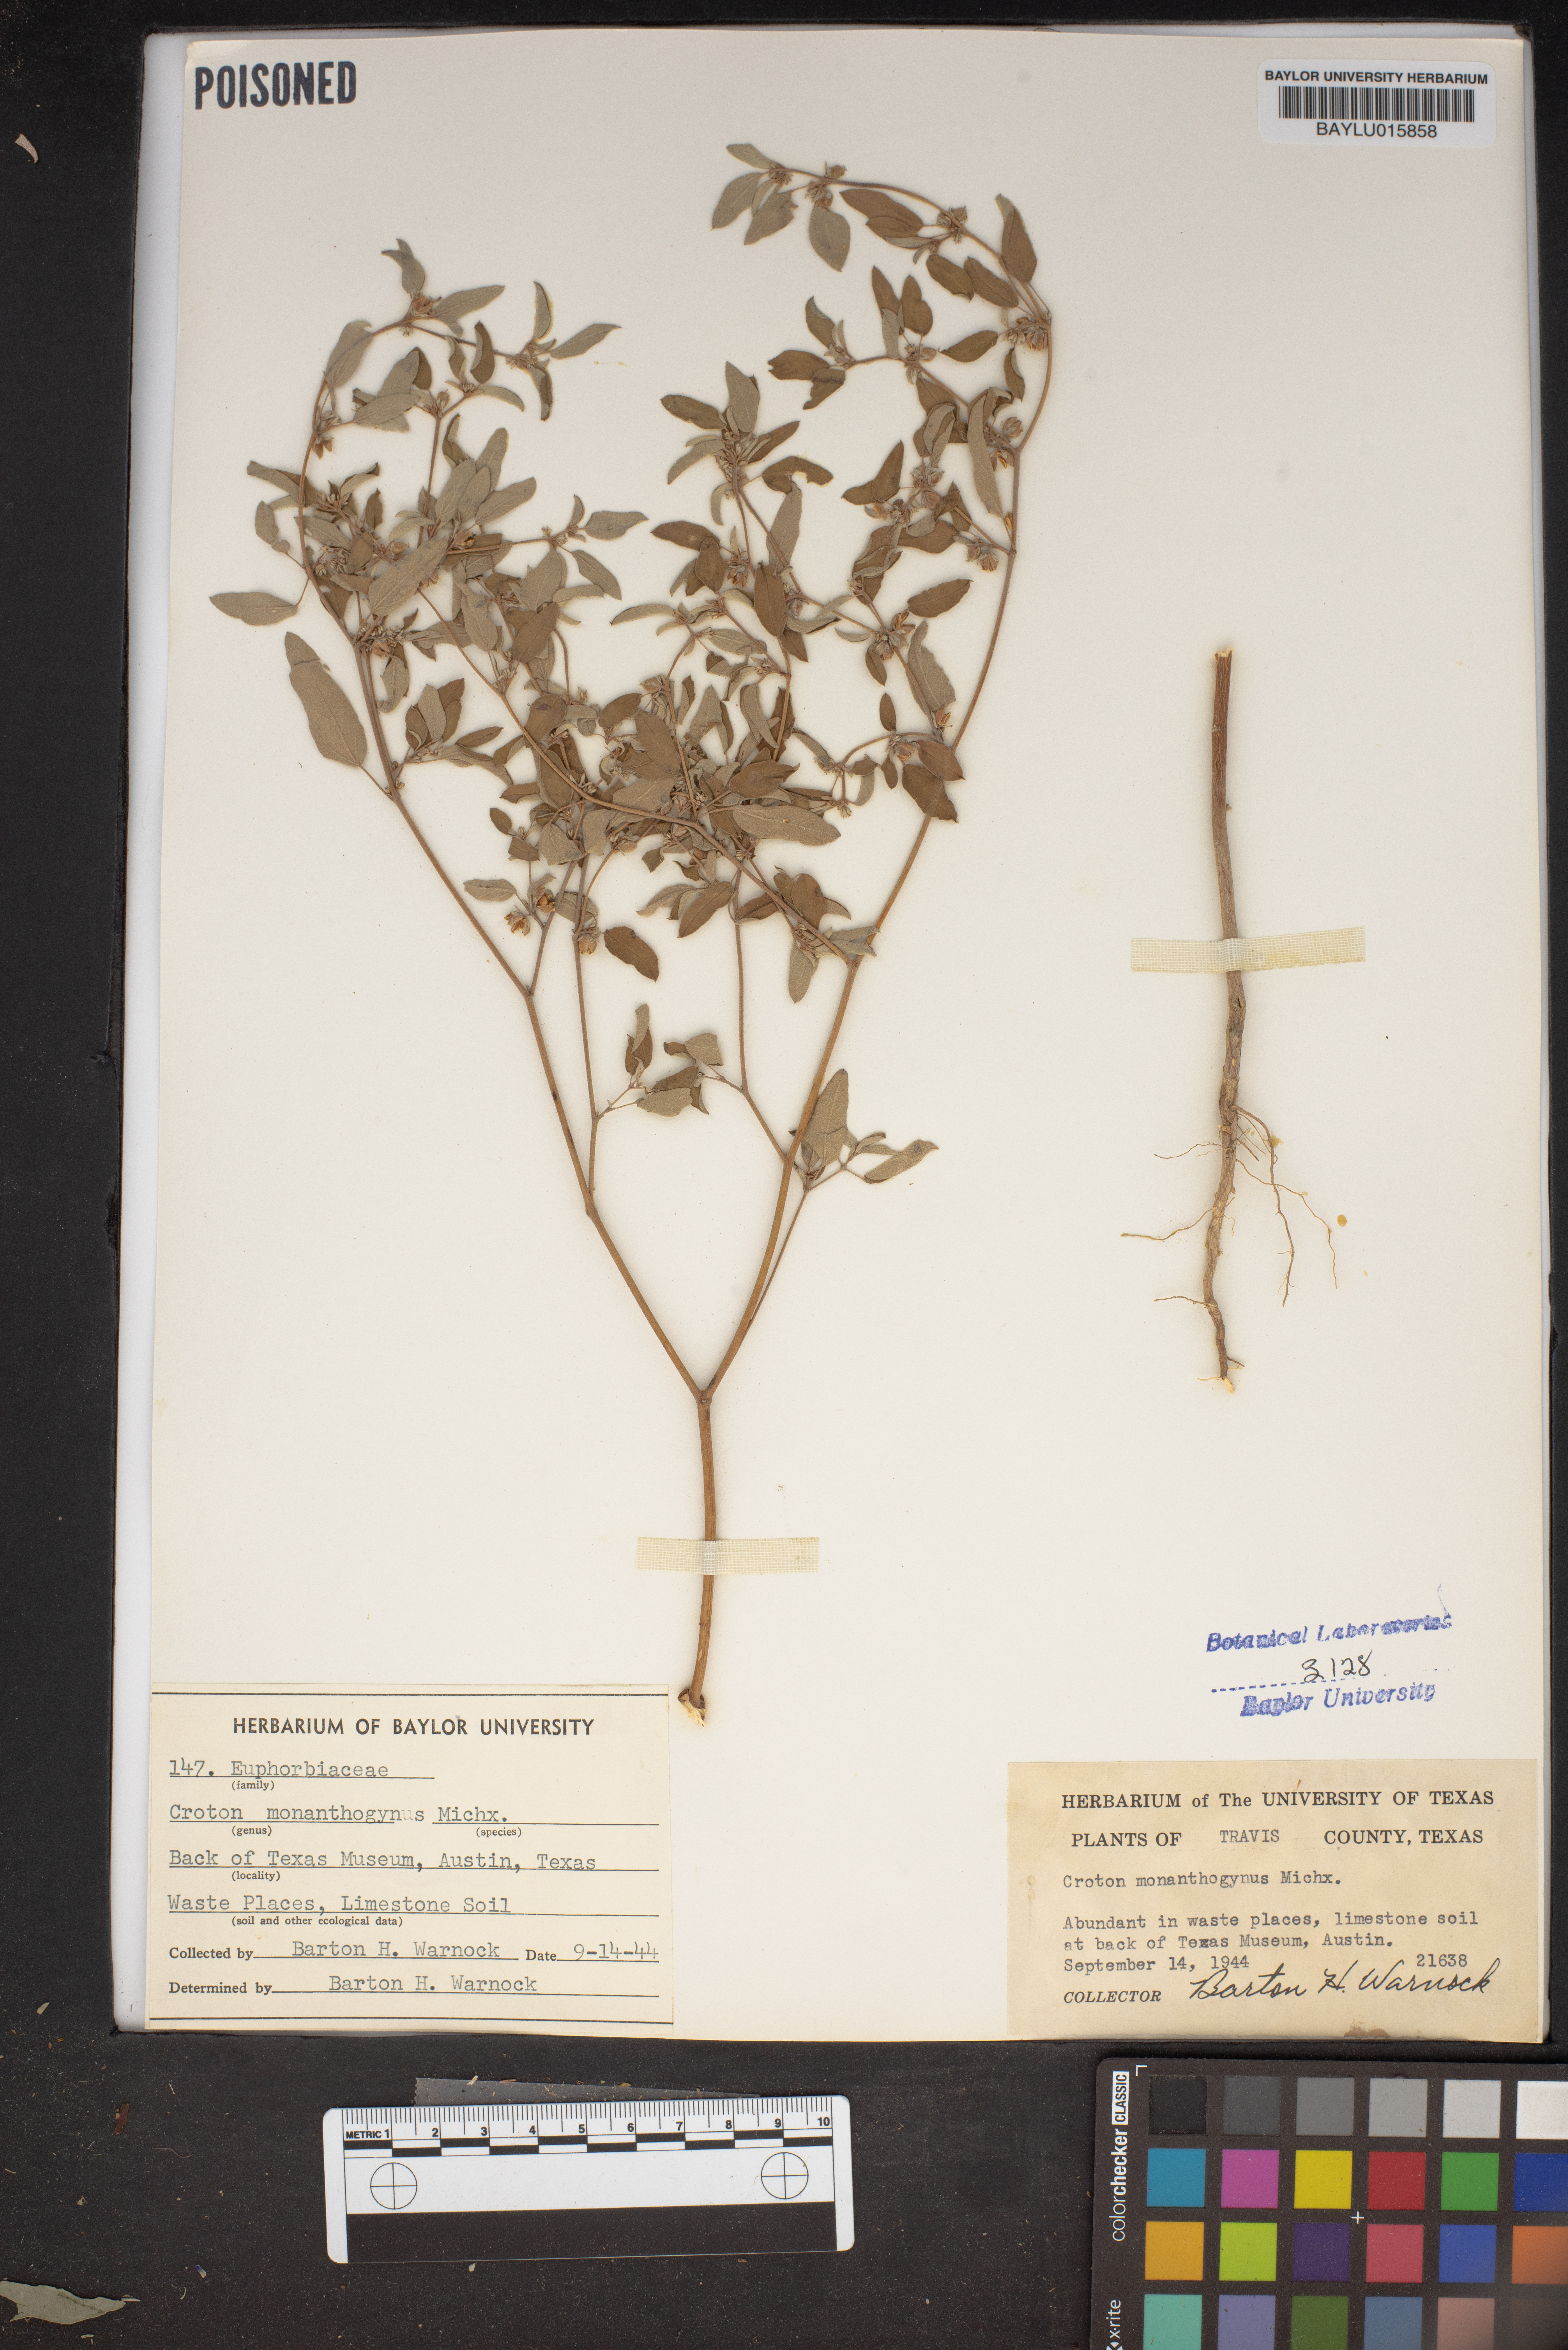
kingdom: Plantae
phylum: Tracheophyta
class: Magnoliopsida
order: Malpighiales
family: Euphorbiaceae
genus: Croton
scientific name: Croton monanthogynus
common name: One-seed croton
